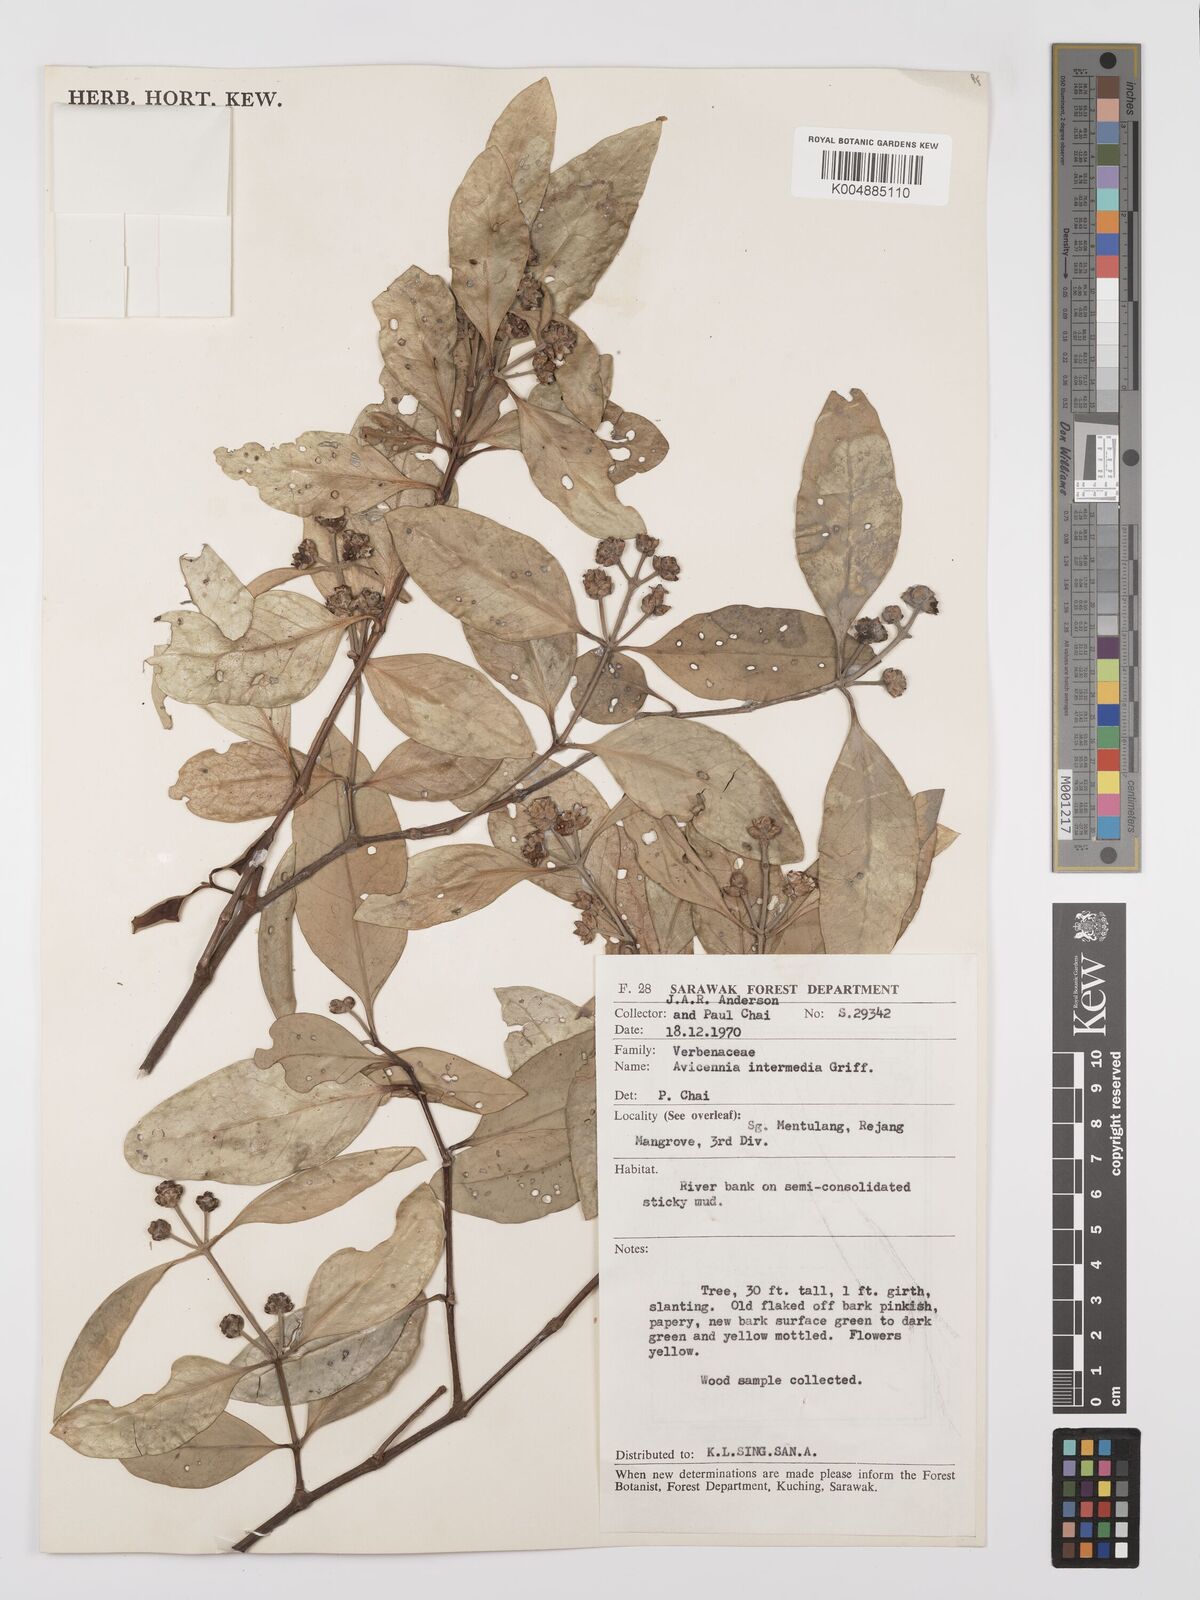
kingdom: Plantae
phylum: Tracheophyta
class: Magnoliopsida
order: Lamiales
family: Acanthaceae
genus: Avicennia
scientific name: Avicennia marina
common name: Gray mangrove
